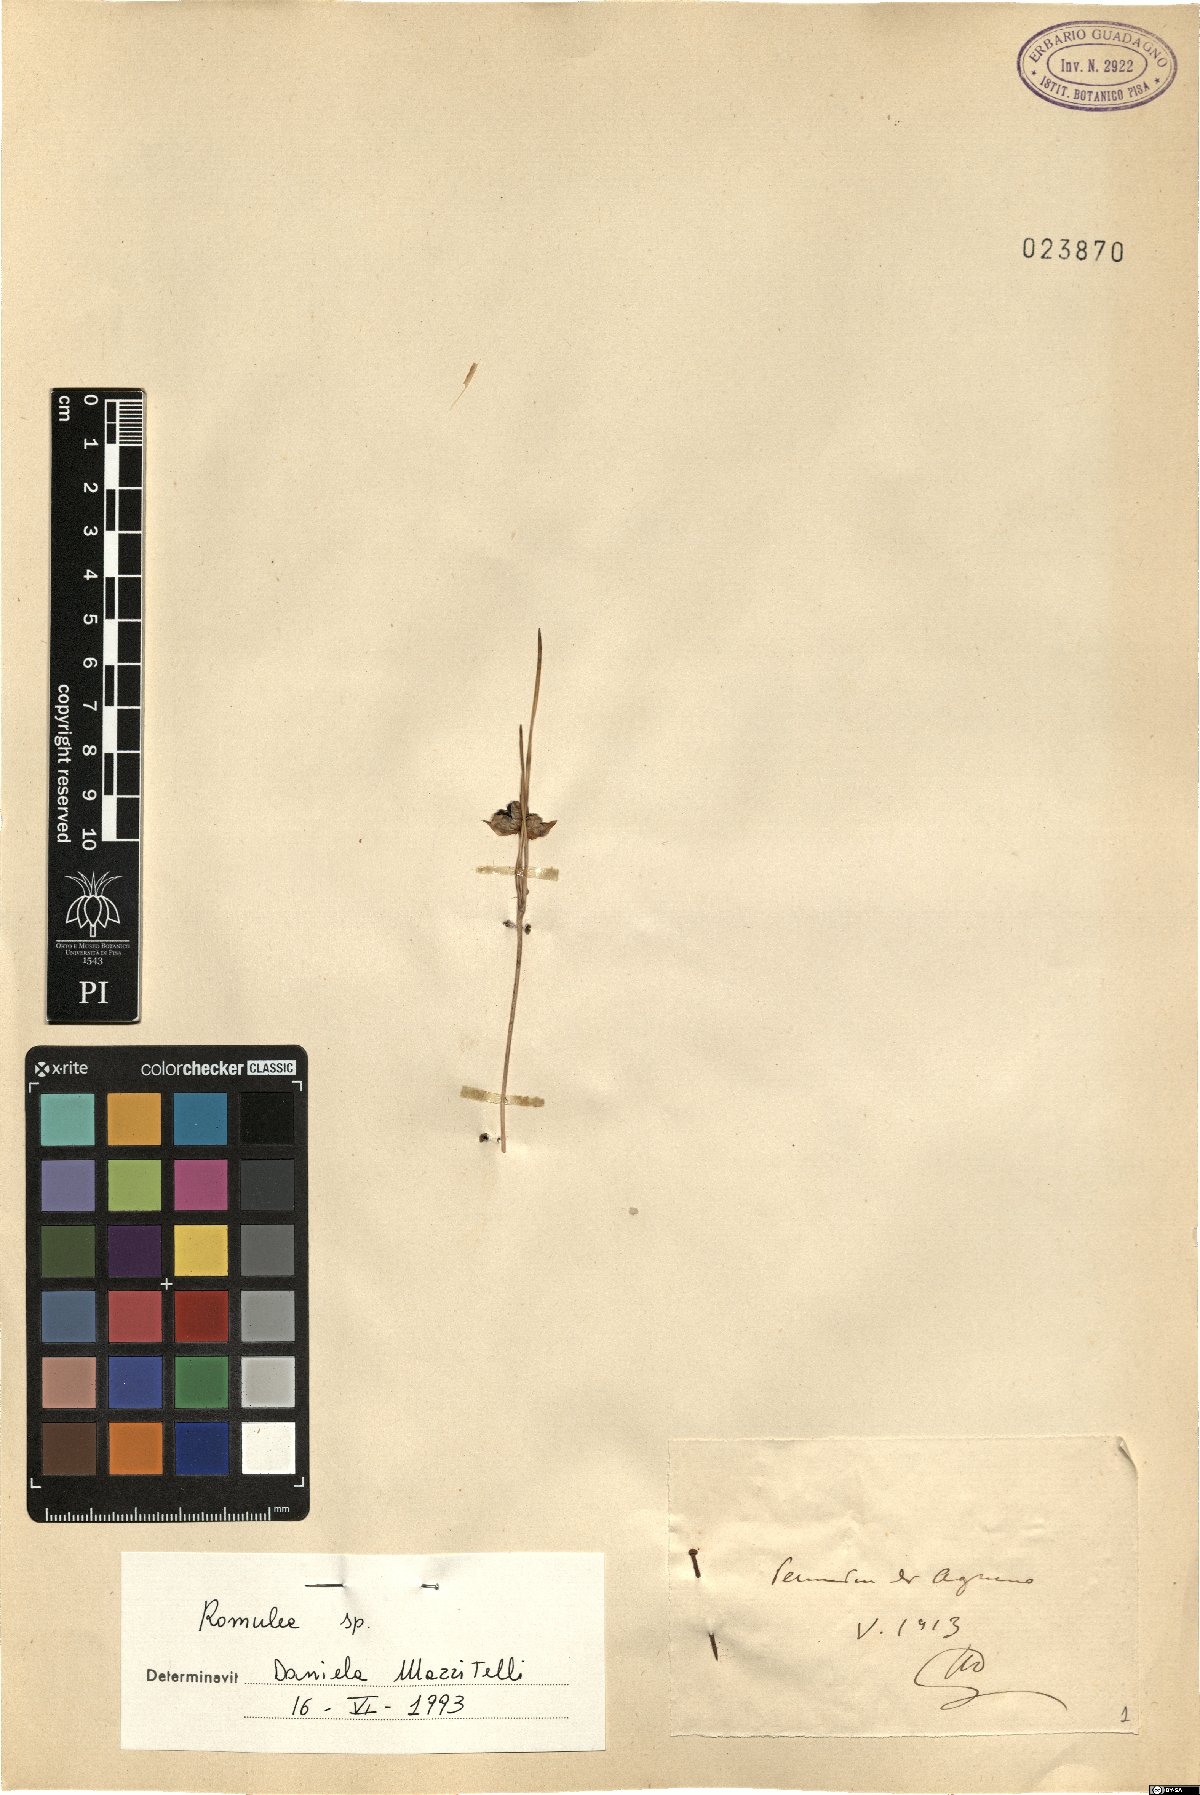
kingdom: Plantae
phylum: Tracheophyta
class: Liliopsida
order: Asparagales
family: Iridaceae
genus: Romulea
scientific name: Romulea
